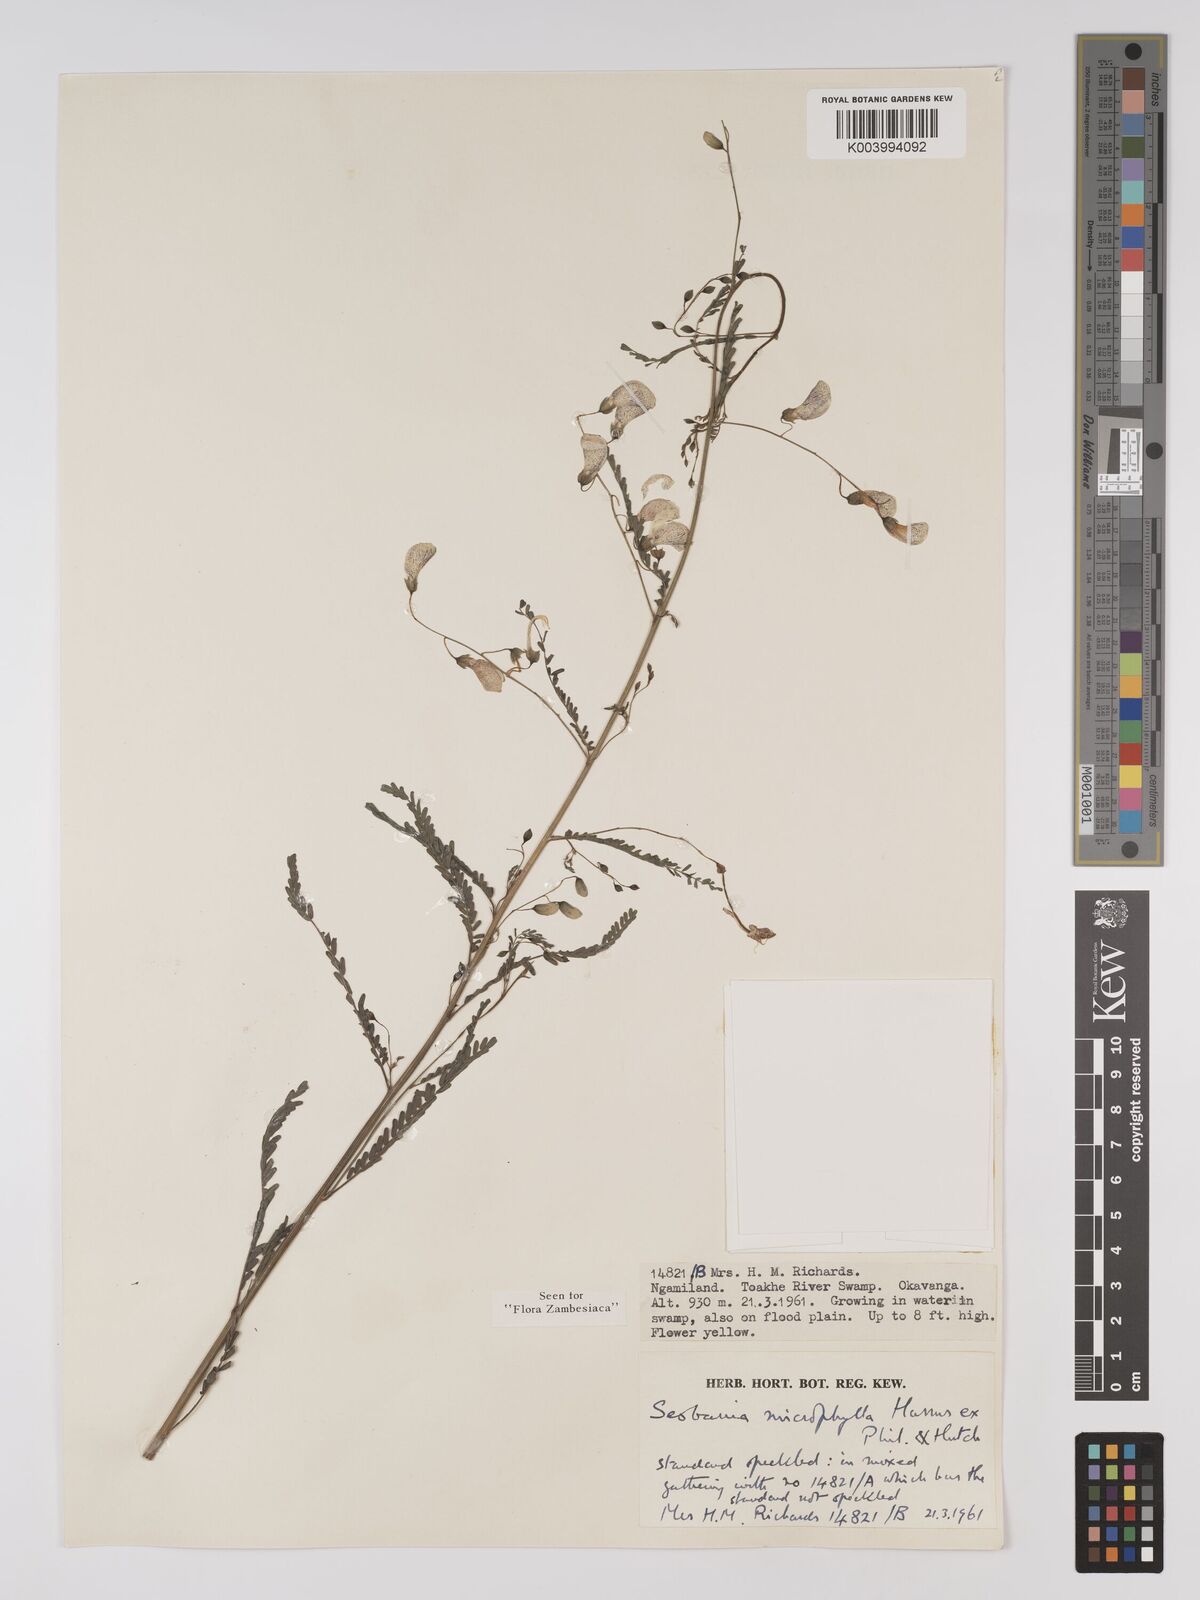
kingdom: Plantae
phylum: Tracheophyta
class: Magnoliopsida
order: Fabales
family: Fabaceae
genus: Sesbania
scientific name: Sesbania microphylla
